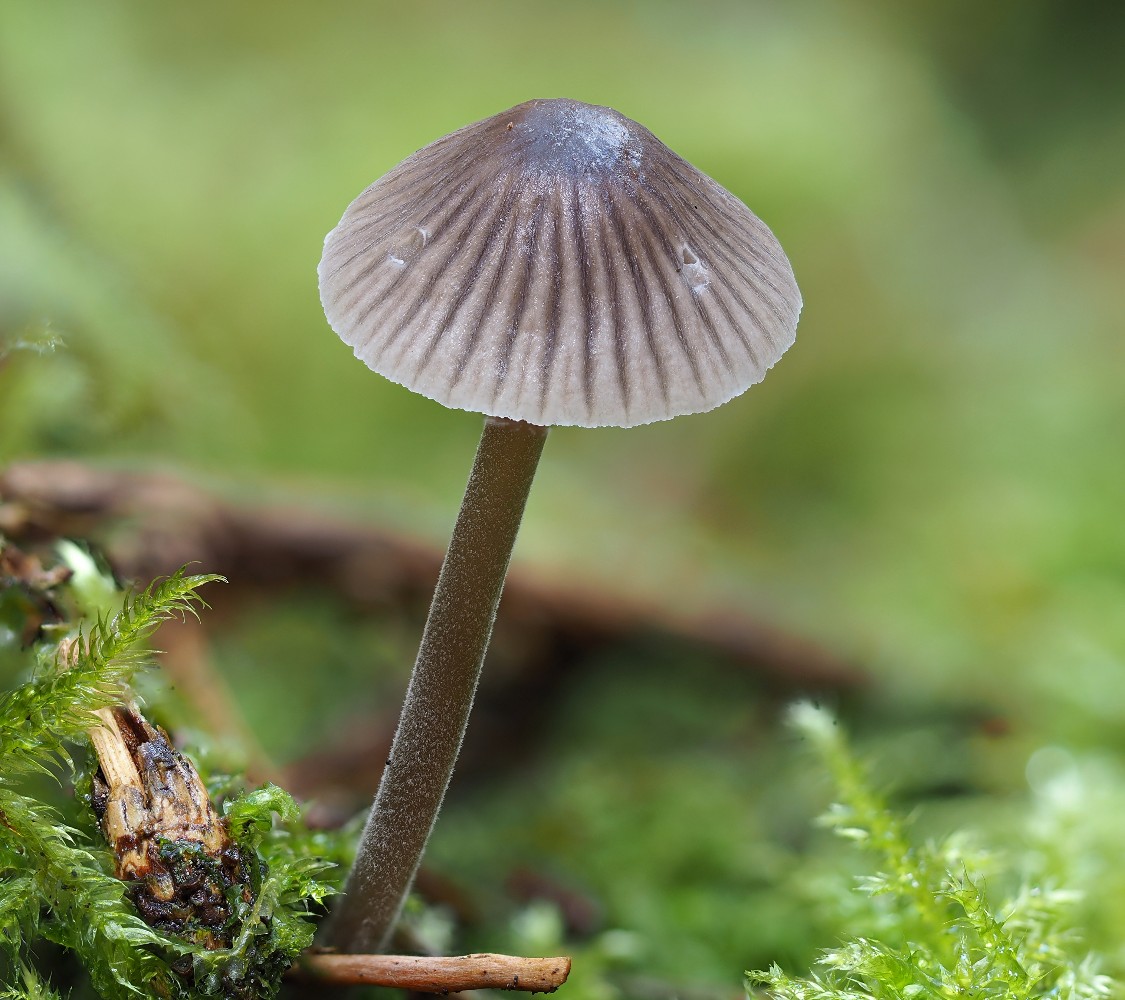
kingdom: Fungi
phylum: Basidiomycota
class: Agaricomycetes
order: Agaricales
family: Mycenaceae
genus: Mycena
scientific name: Mycena leptocephala
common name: klor-huesvamp
